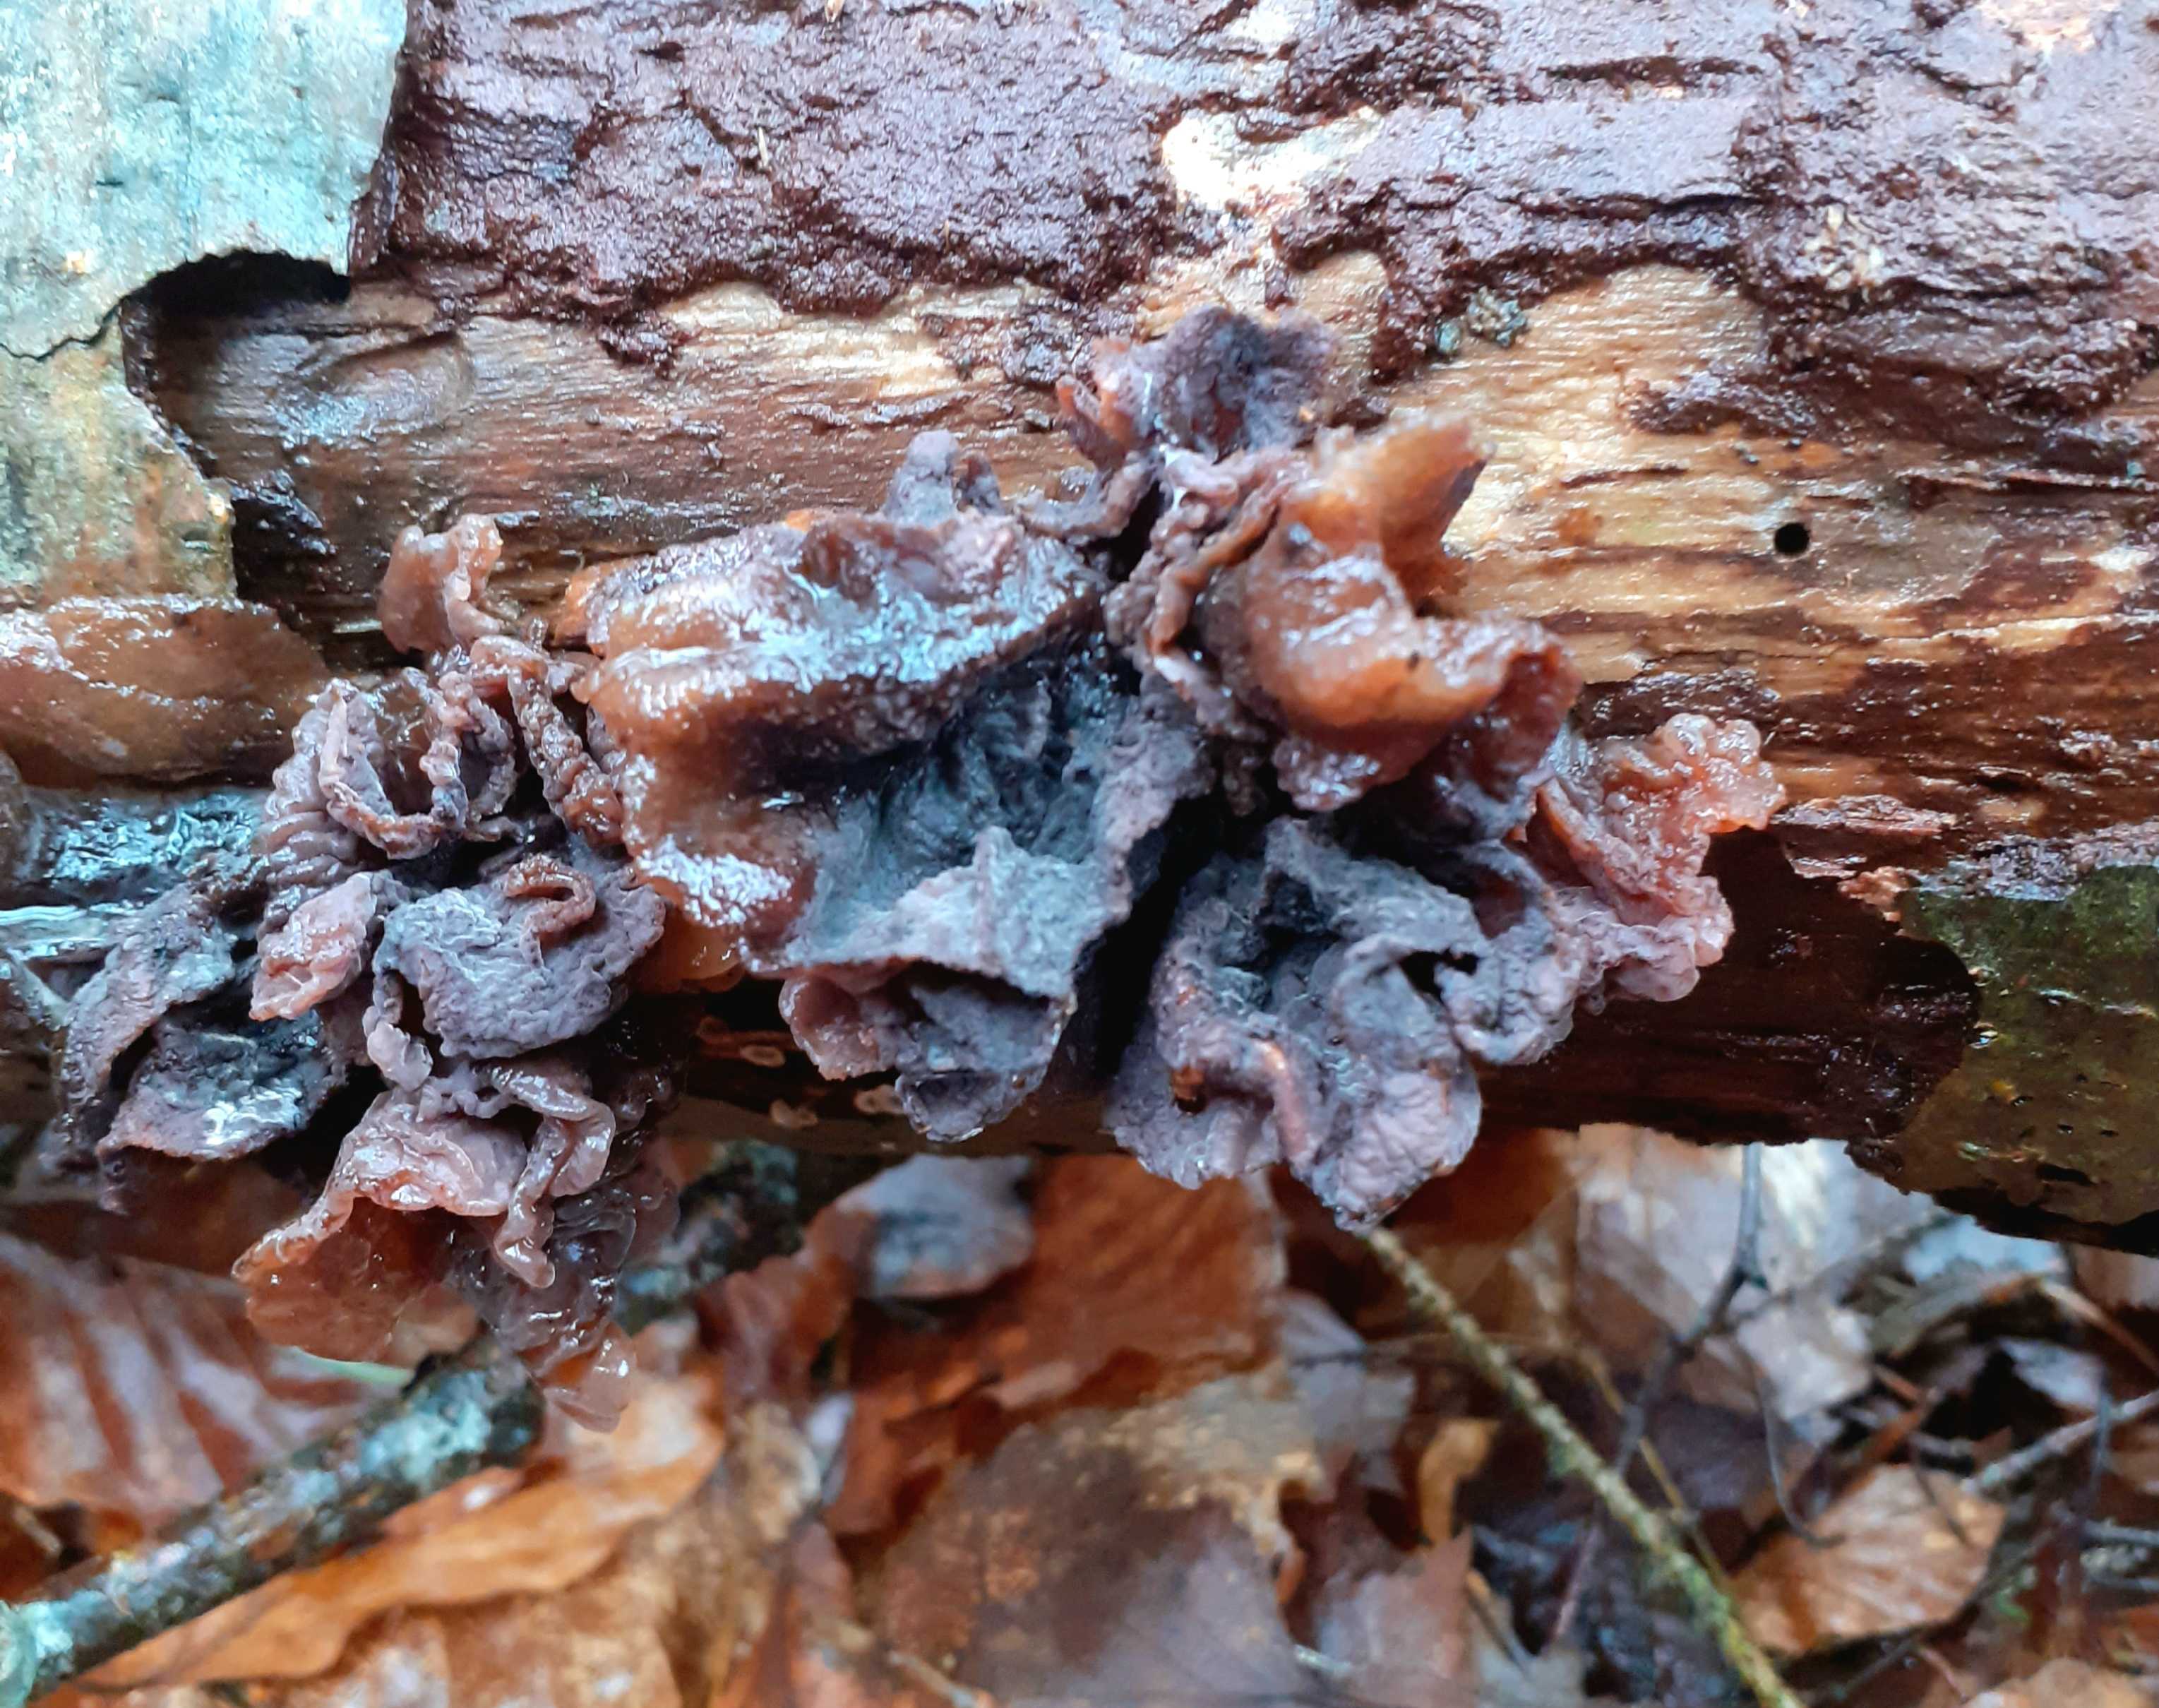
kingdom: Fungi
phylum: Basidiomycota
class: Tremellomycetes
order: Tremellales
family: Tremellaceae
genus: Phaeotremella
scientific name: Phaeotremella frondosa
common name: kæmpe-bævresvamp
